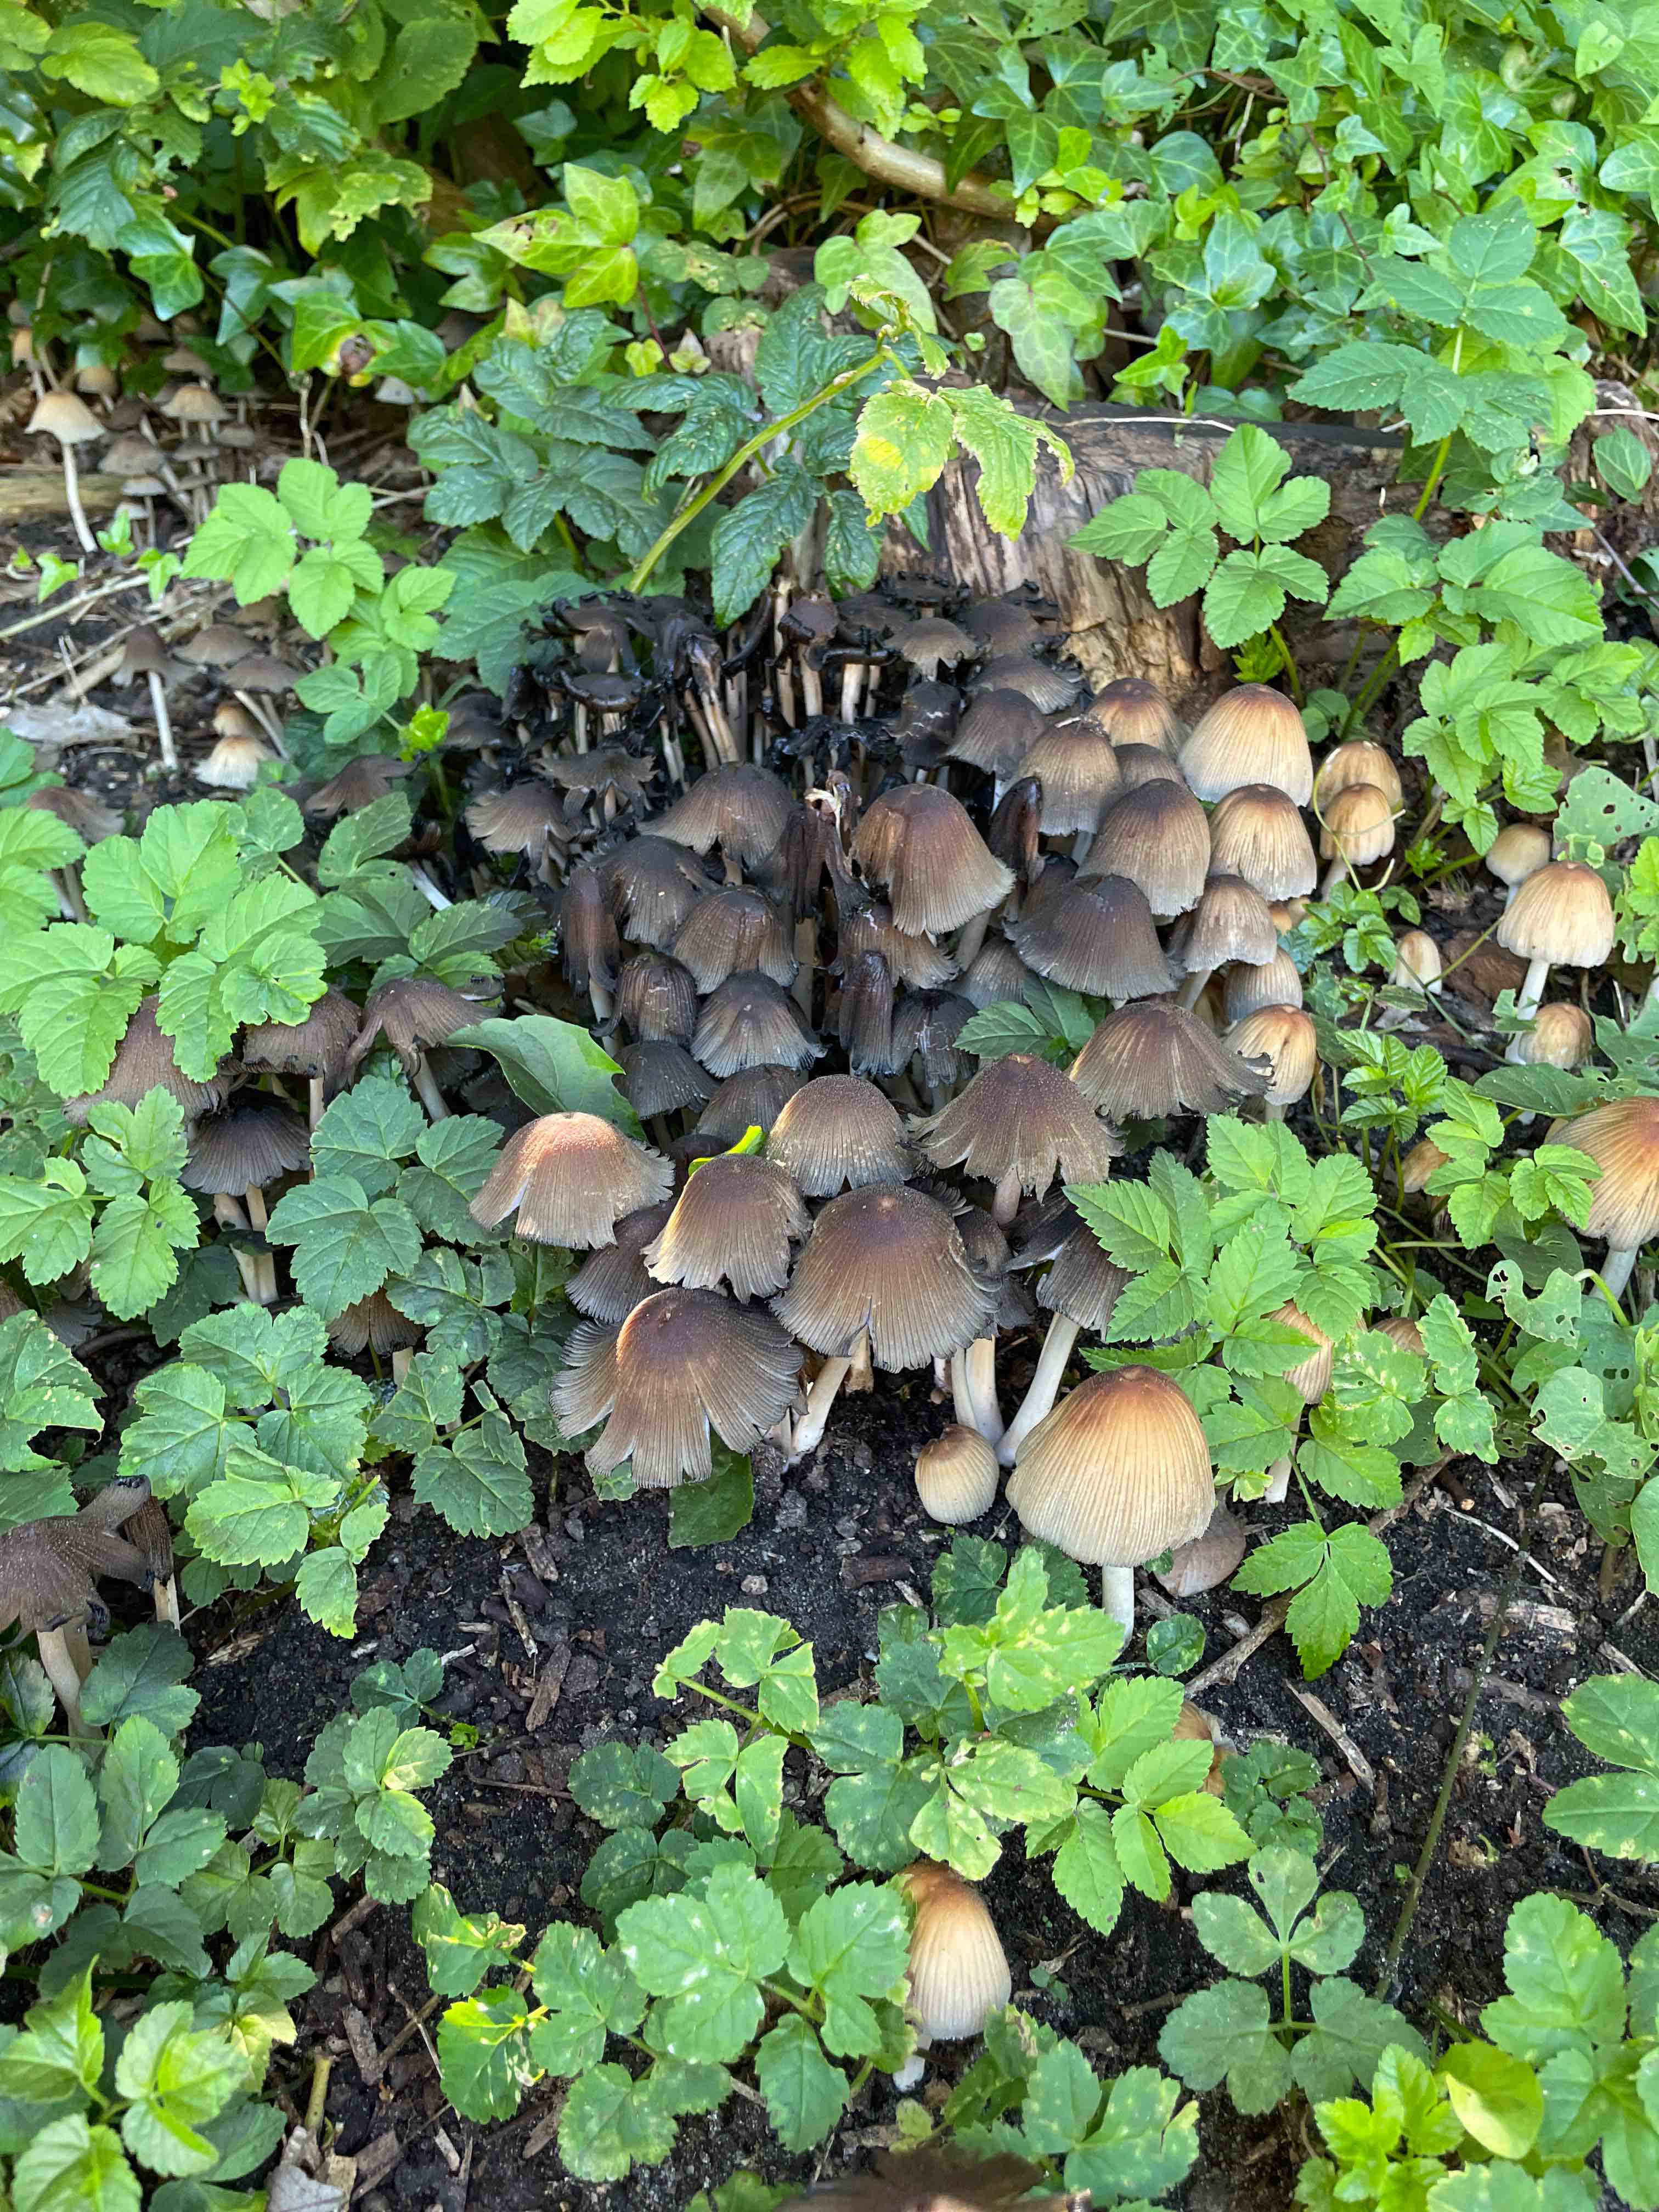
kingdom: Fungi
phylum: Basidiomycota
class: Agaricomycetes
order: Agaricales
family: Psathyrellaceae
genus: Coprinellus
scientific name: Coprinellus micaceus
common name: glimmer-blækhat
